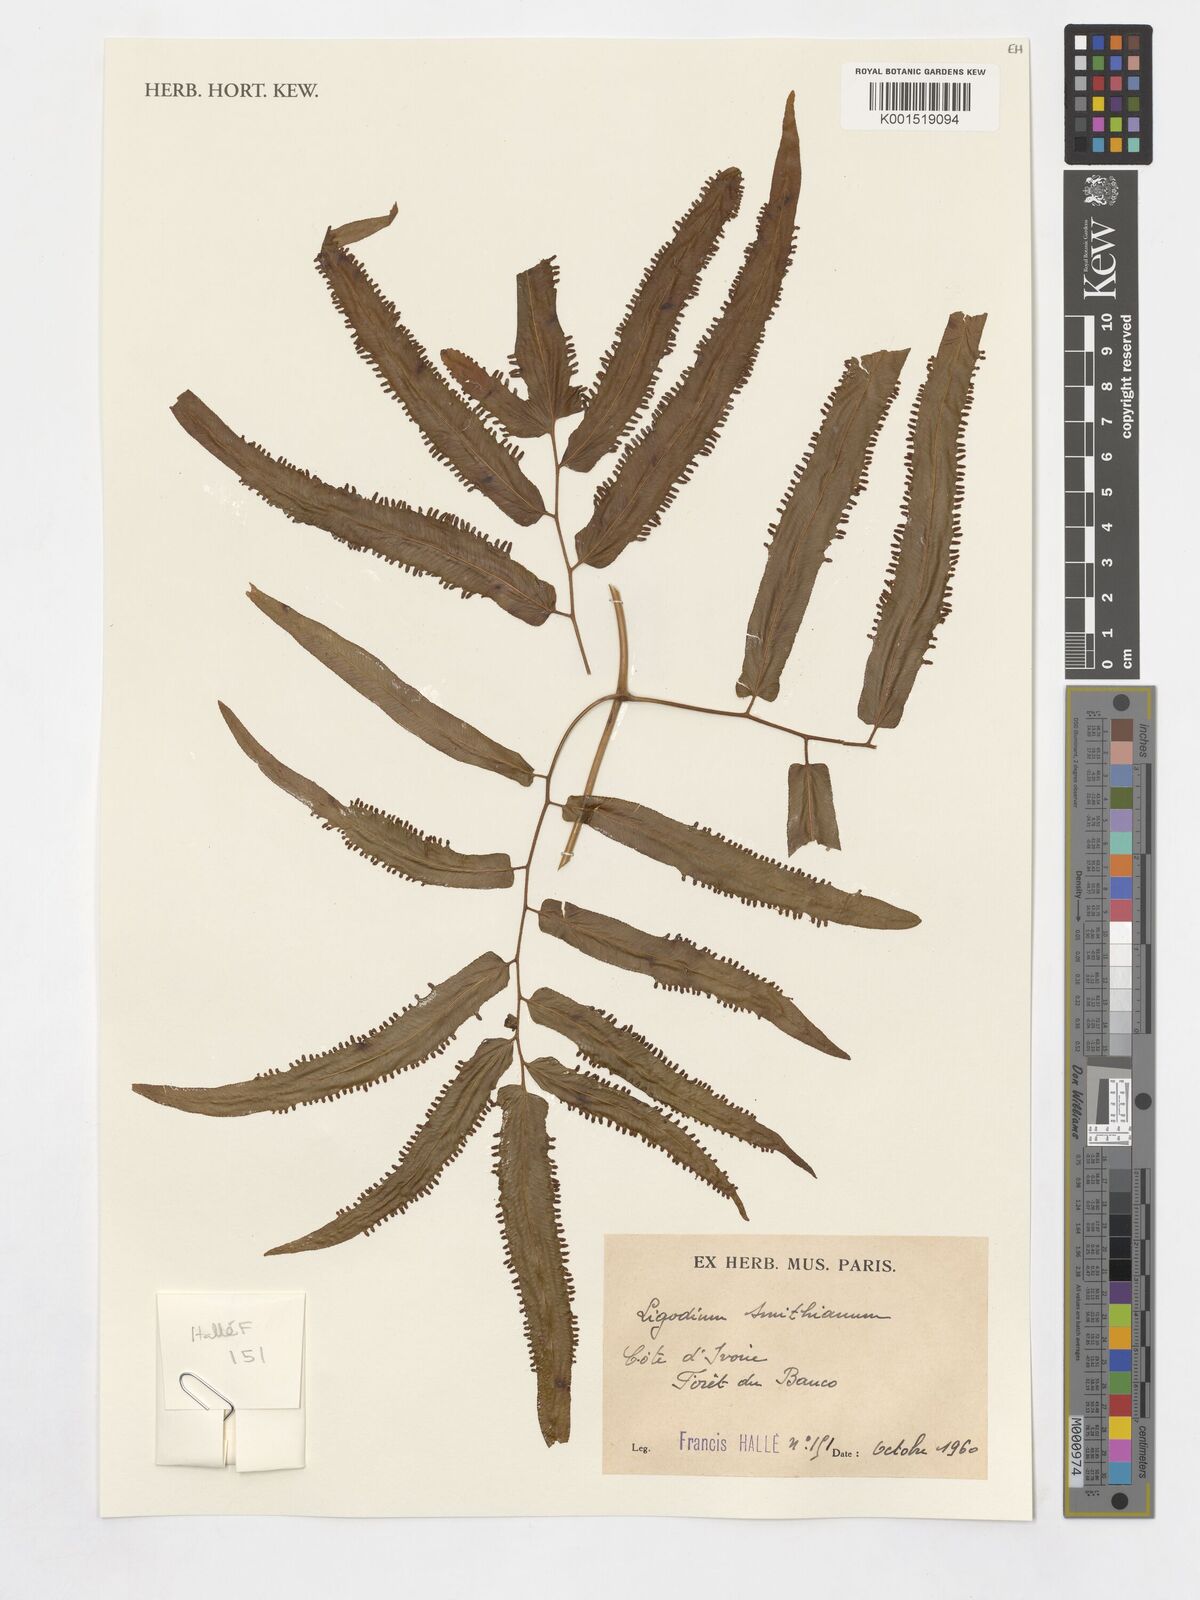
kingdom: Plantae
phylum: Tracheophyta
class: Polypodiopsida
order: Schizaeales
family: Lygodiaceae
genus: Lygodium
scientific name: Lygodium smithianum
